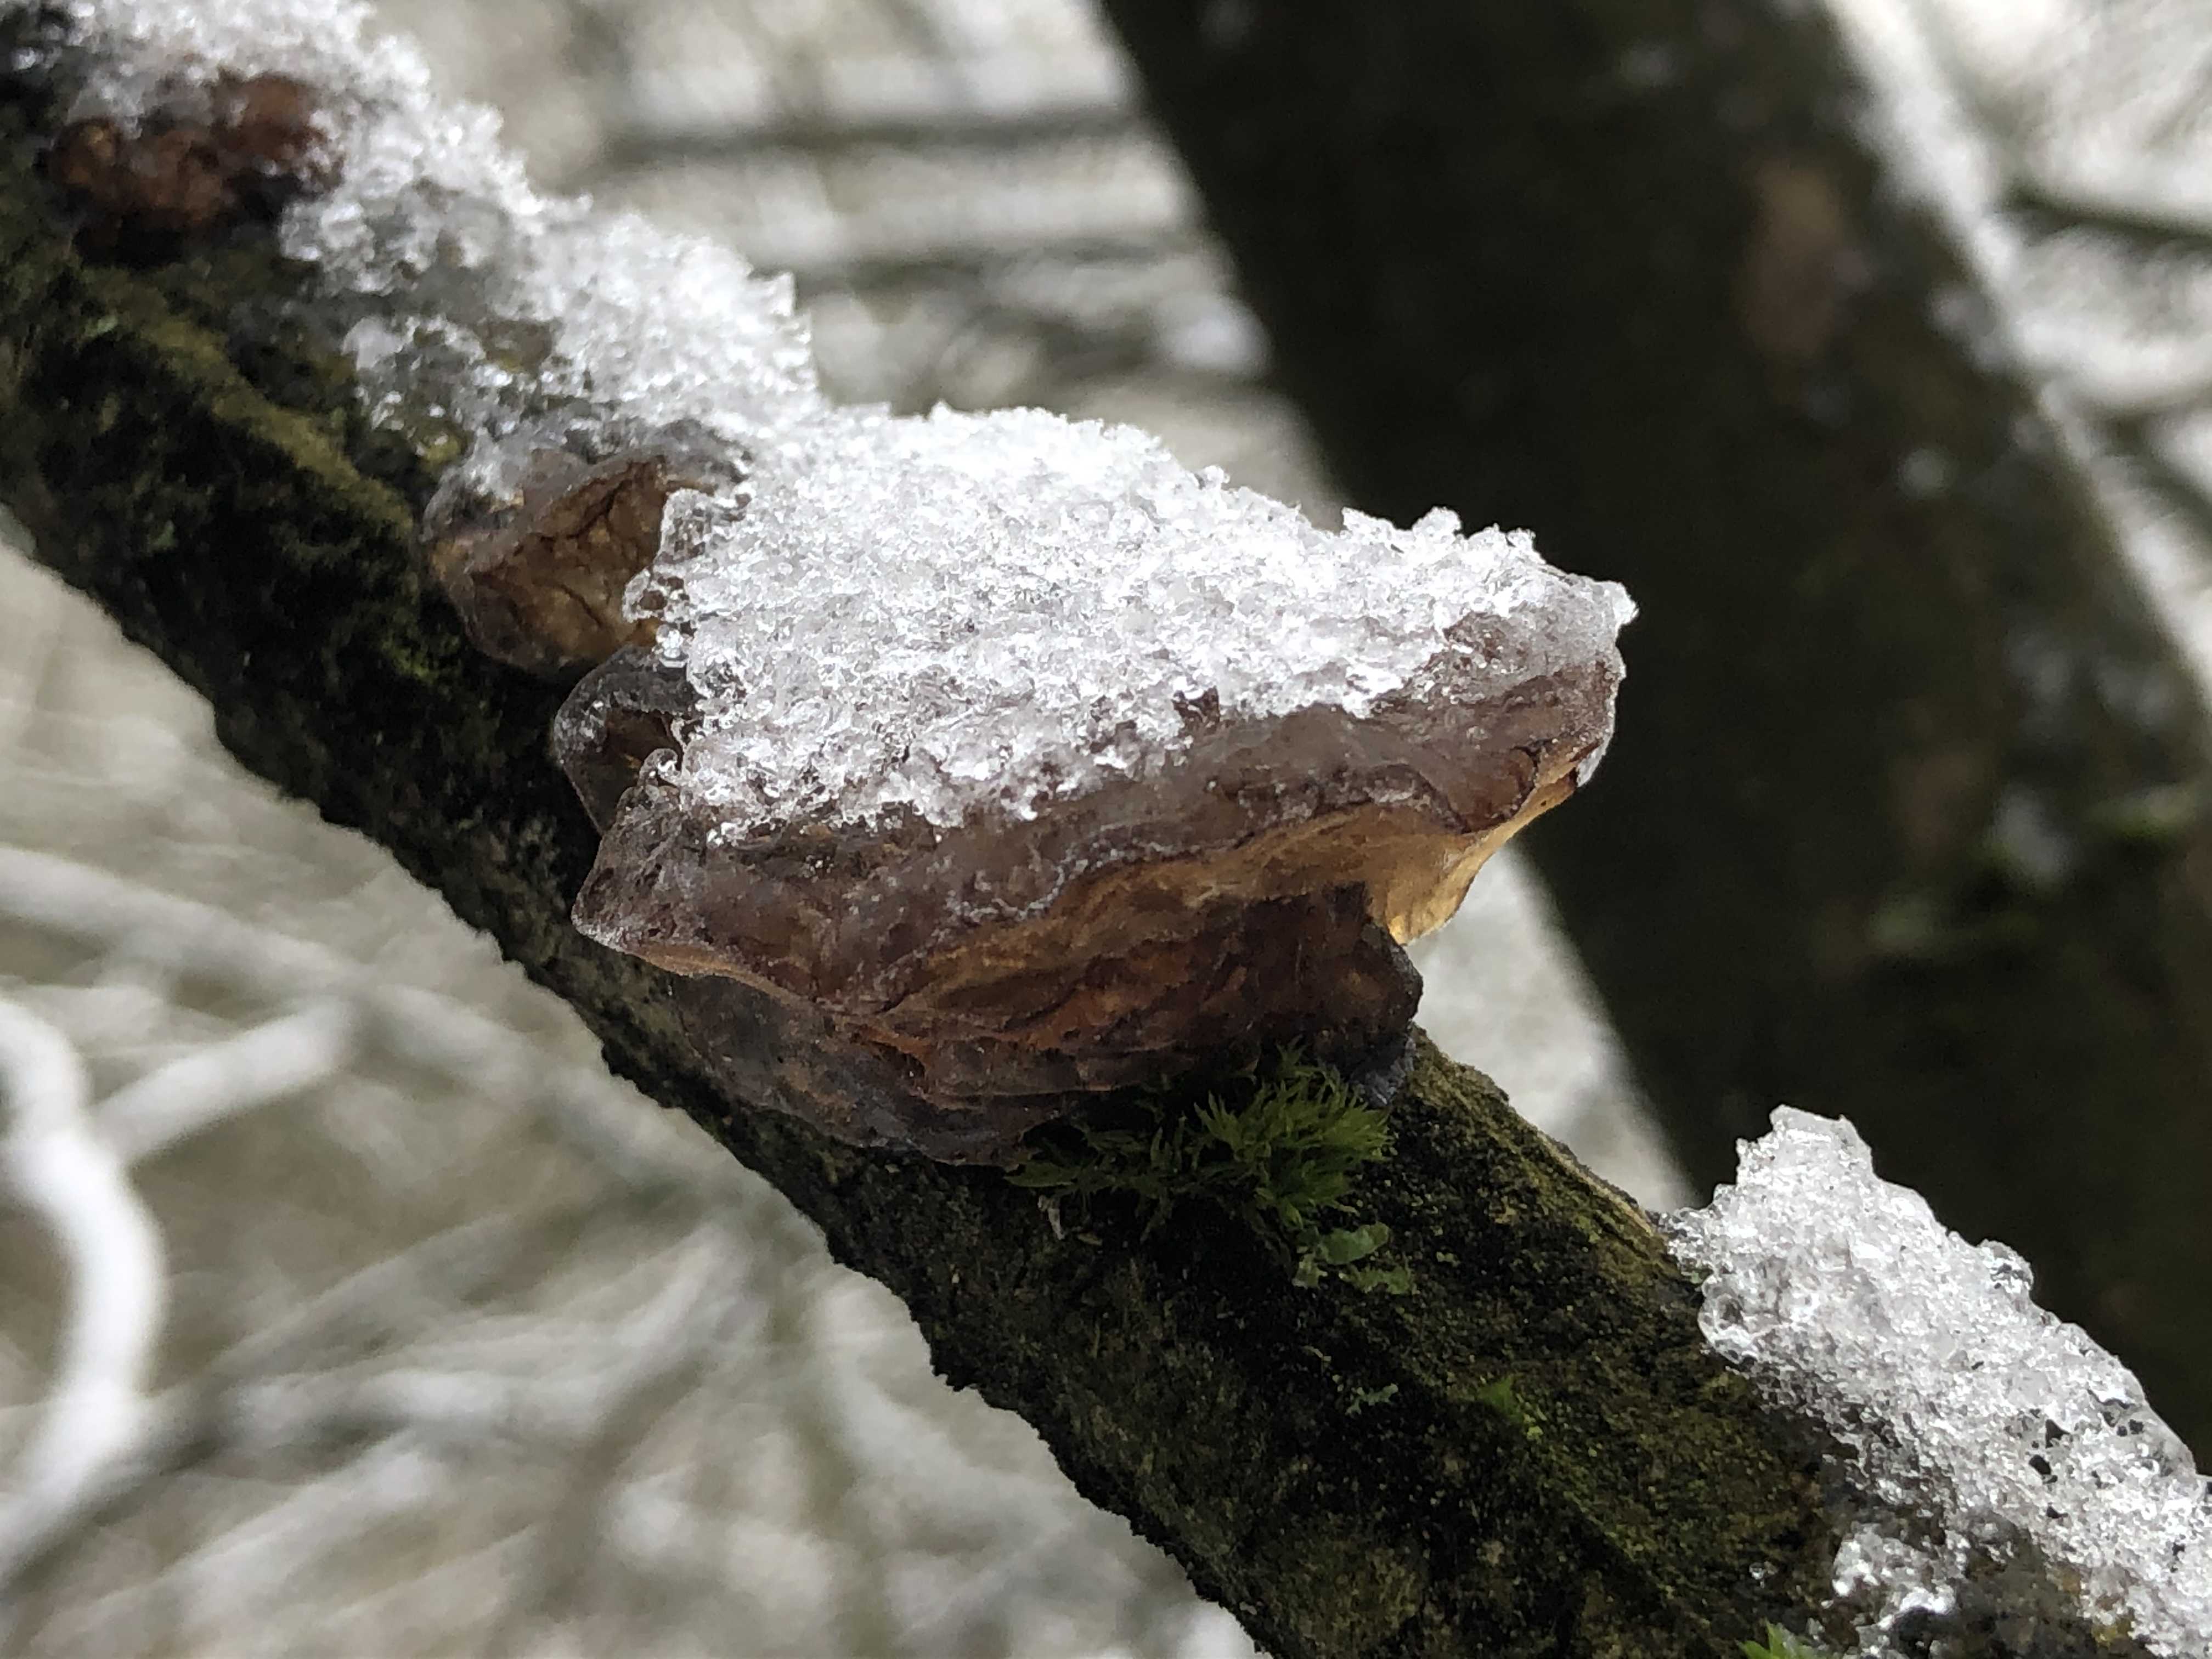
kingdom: Fungi
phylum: Basidiomycota
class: Agaricomycetes
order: Auriculariales
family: Auriculariaceae
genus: Exidia
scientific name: Exidia recisa
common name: pile-bævretop
